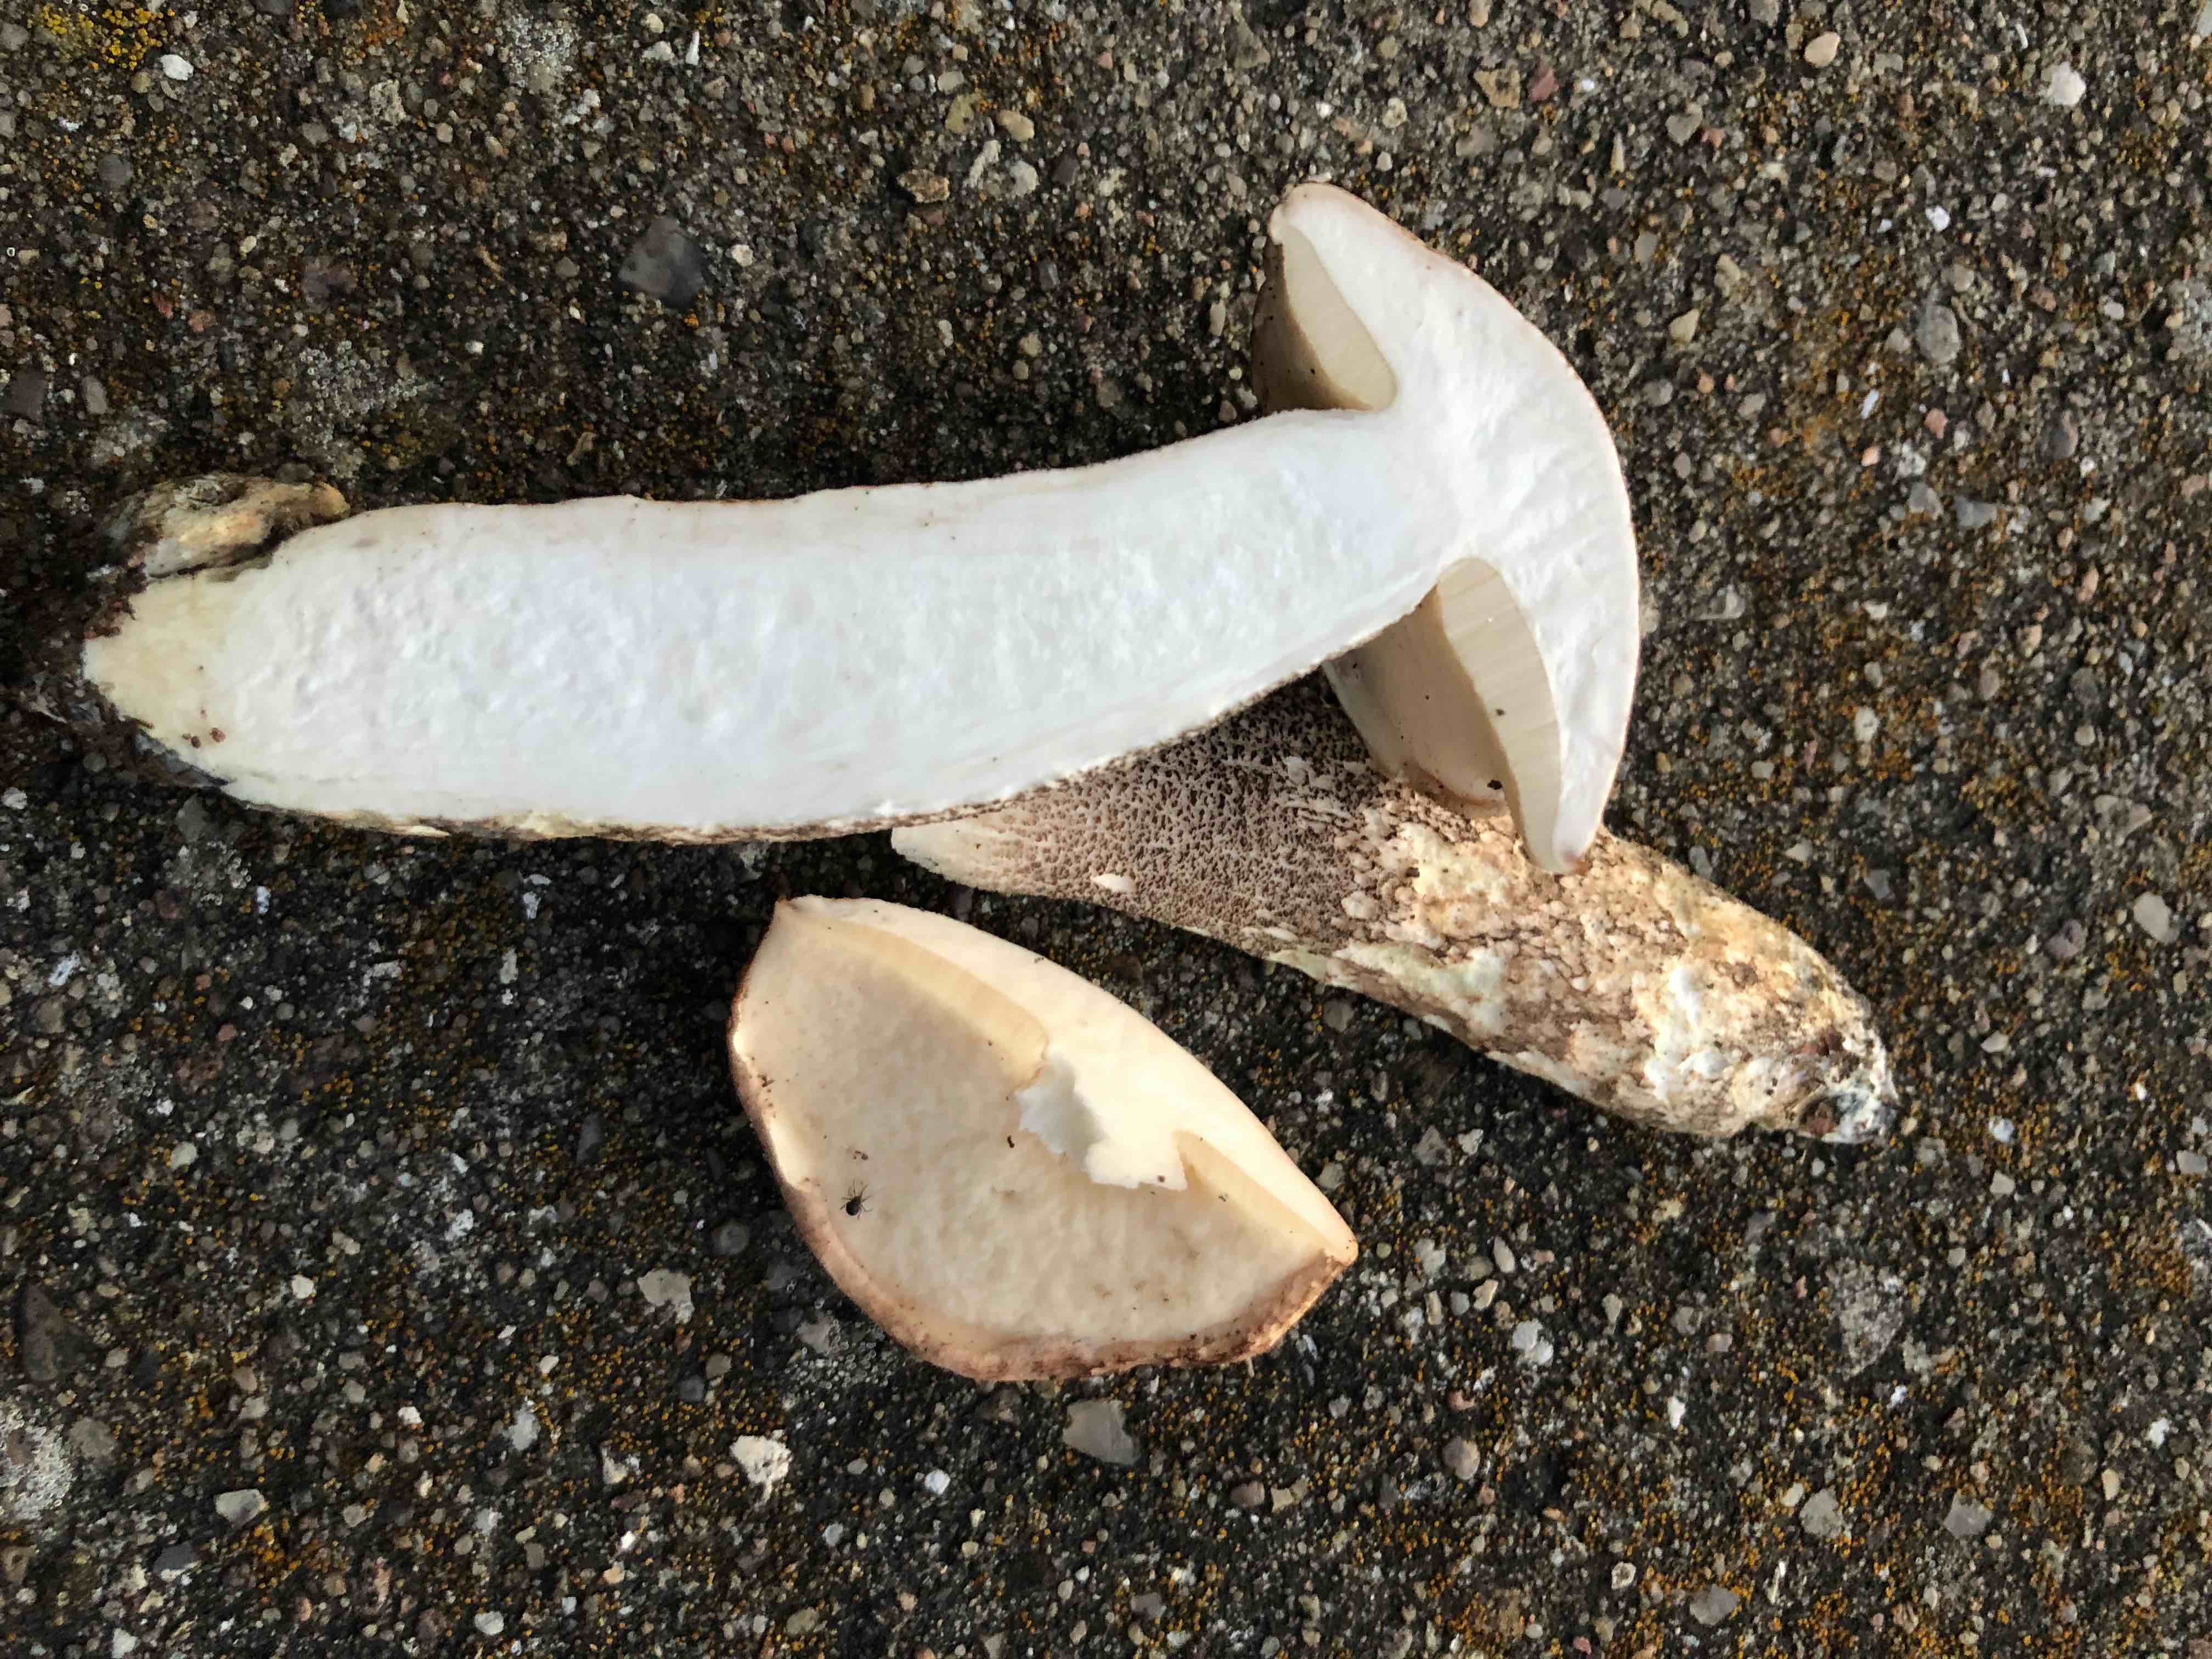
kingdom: Fungi
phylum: Basidiomycota
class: Agaricomycetes
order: Boletales
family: Boletaceae
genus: Leccinum
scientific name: Leccinum
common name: skælrørhat
